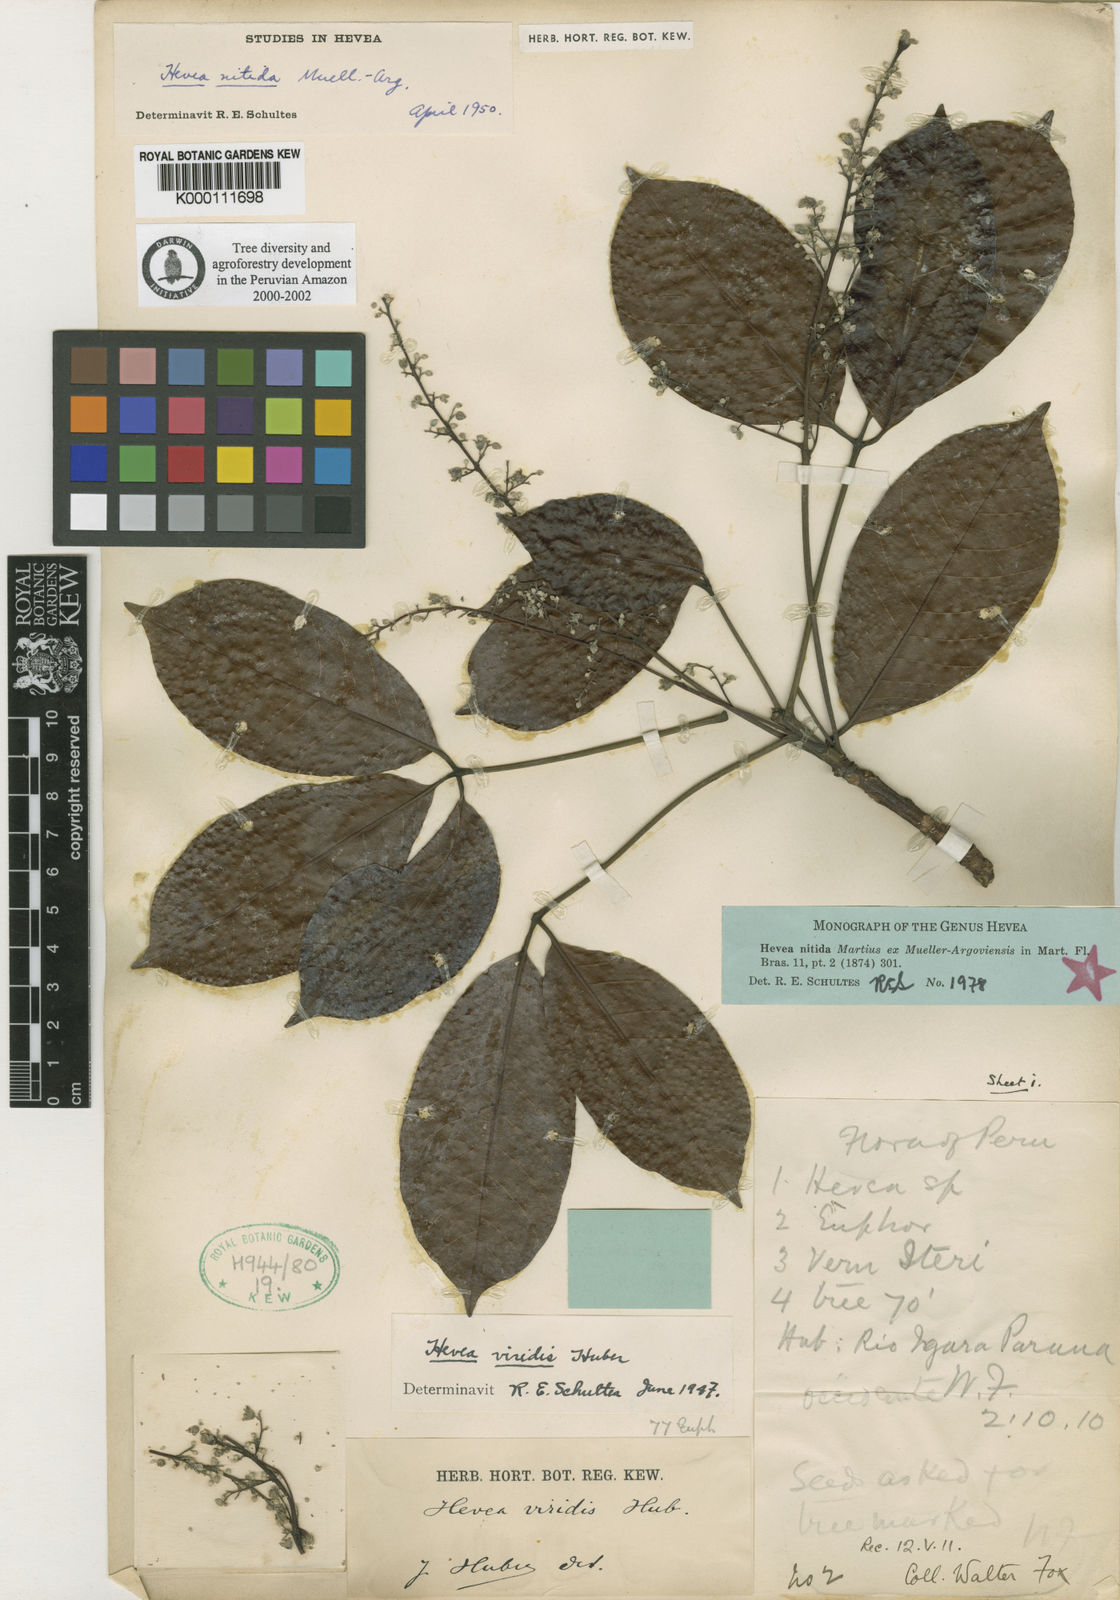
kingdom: Plantae
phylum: Tracheophyta
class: Magnoliopsida
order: Malpighiales
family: Euphorbiaceae
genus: Hevea
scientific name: Hevea nitida
